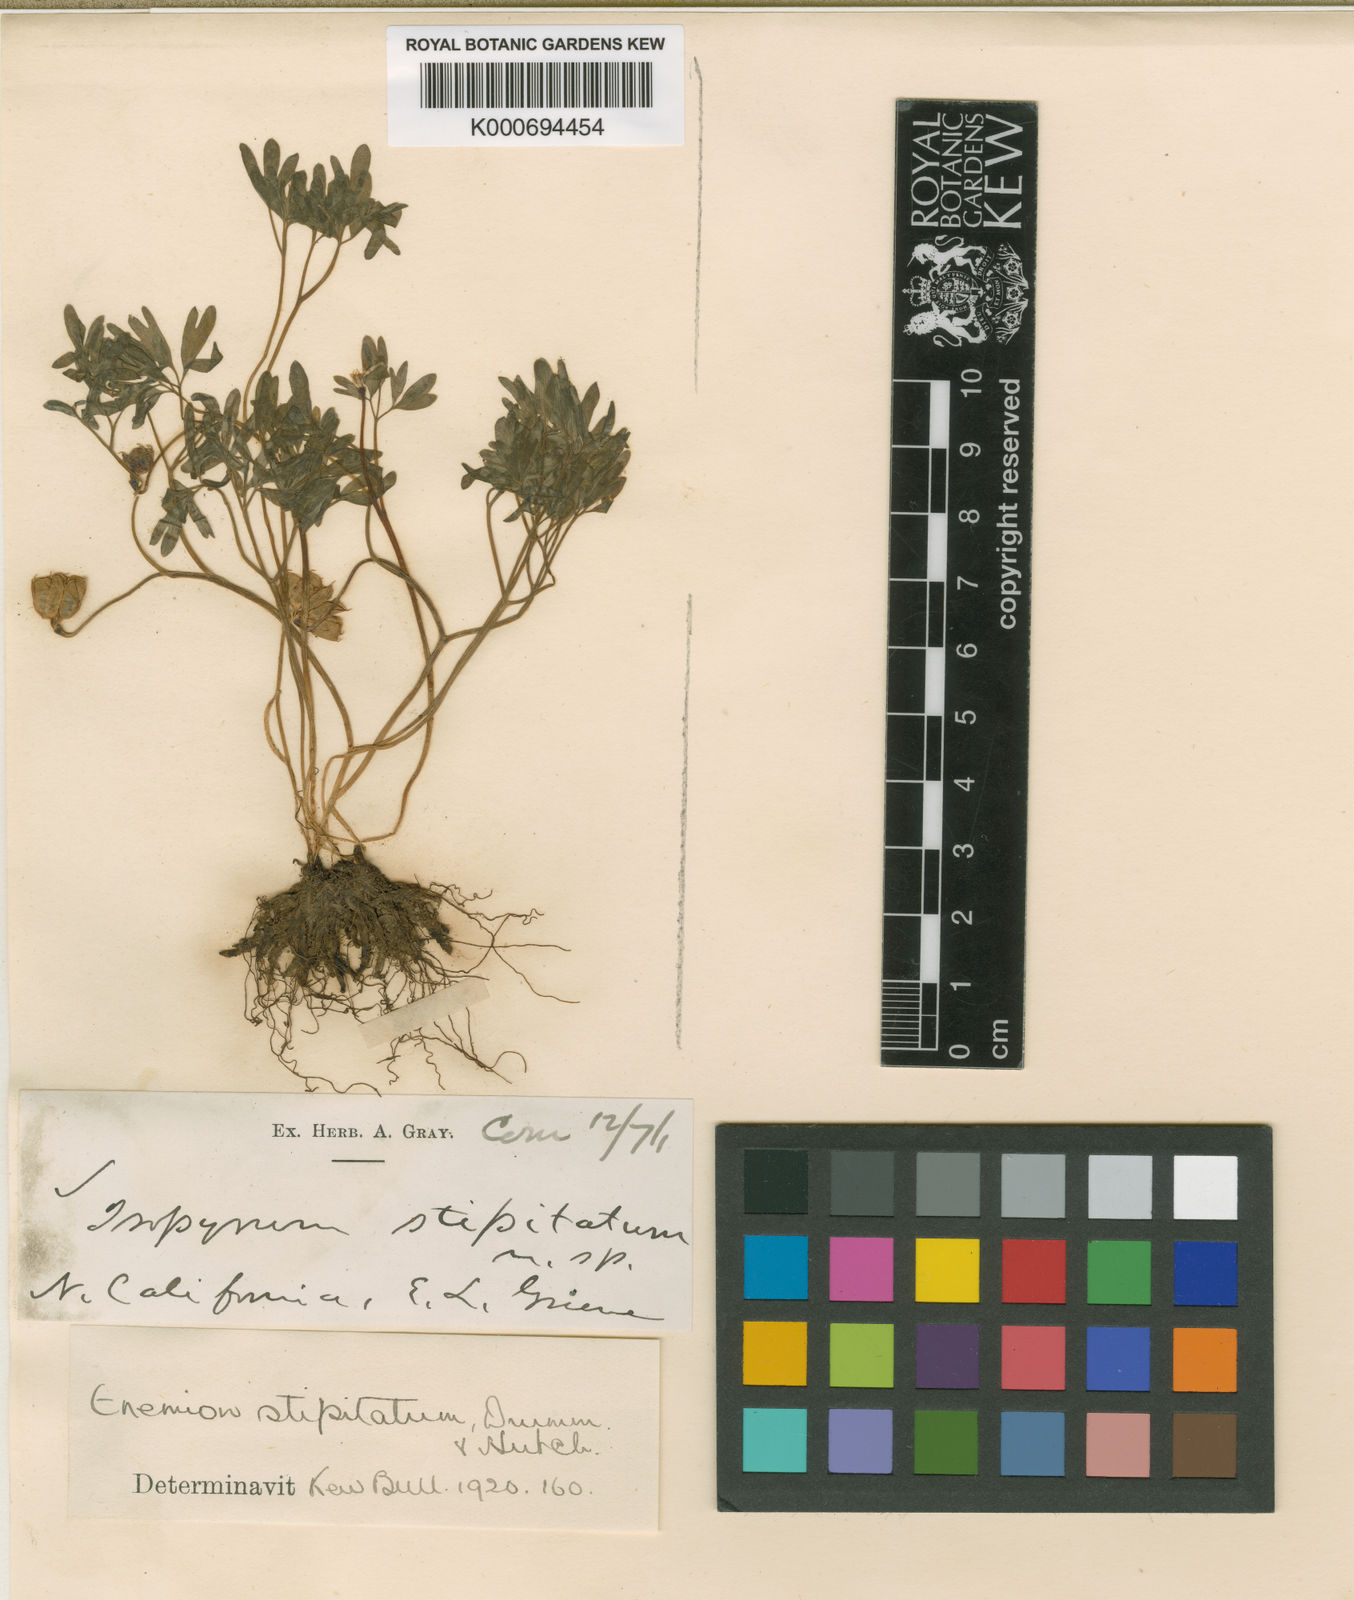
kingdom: Plantae
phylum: Tracheophyta
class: Magnoliopsida
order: Ranunculales
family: Ranunculaceae
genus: Enemion
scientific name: Enemion stipitatum
